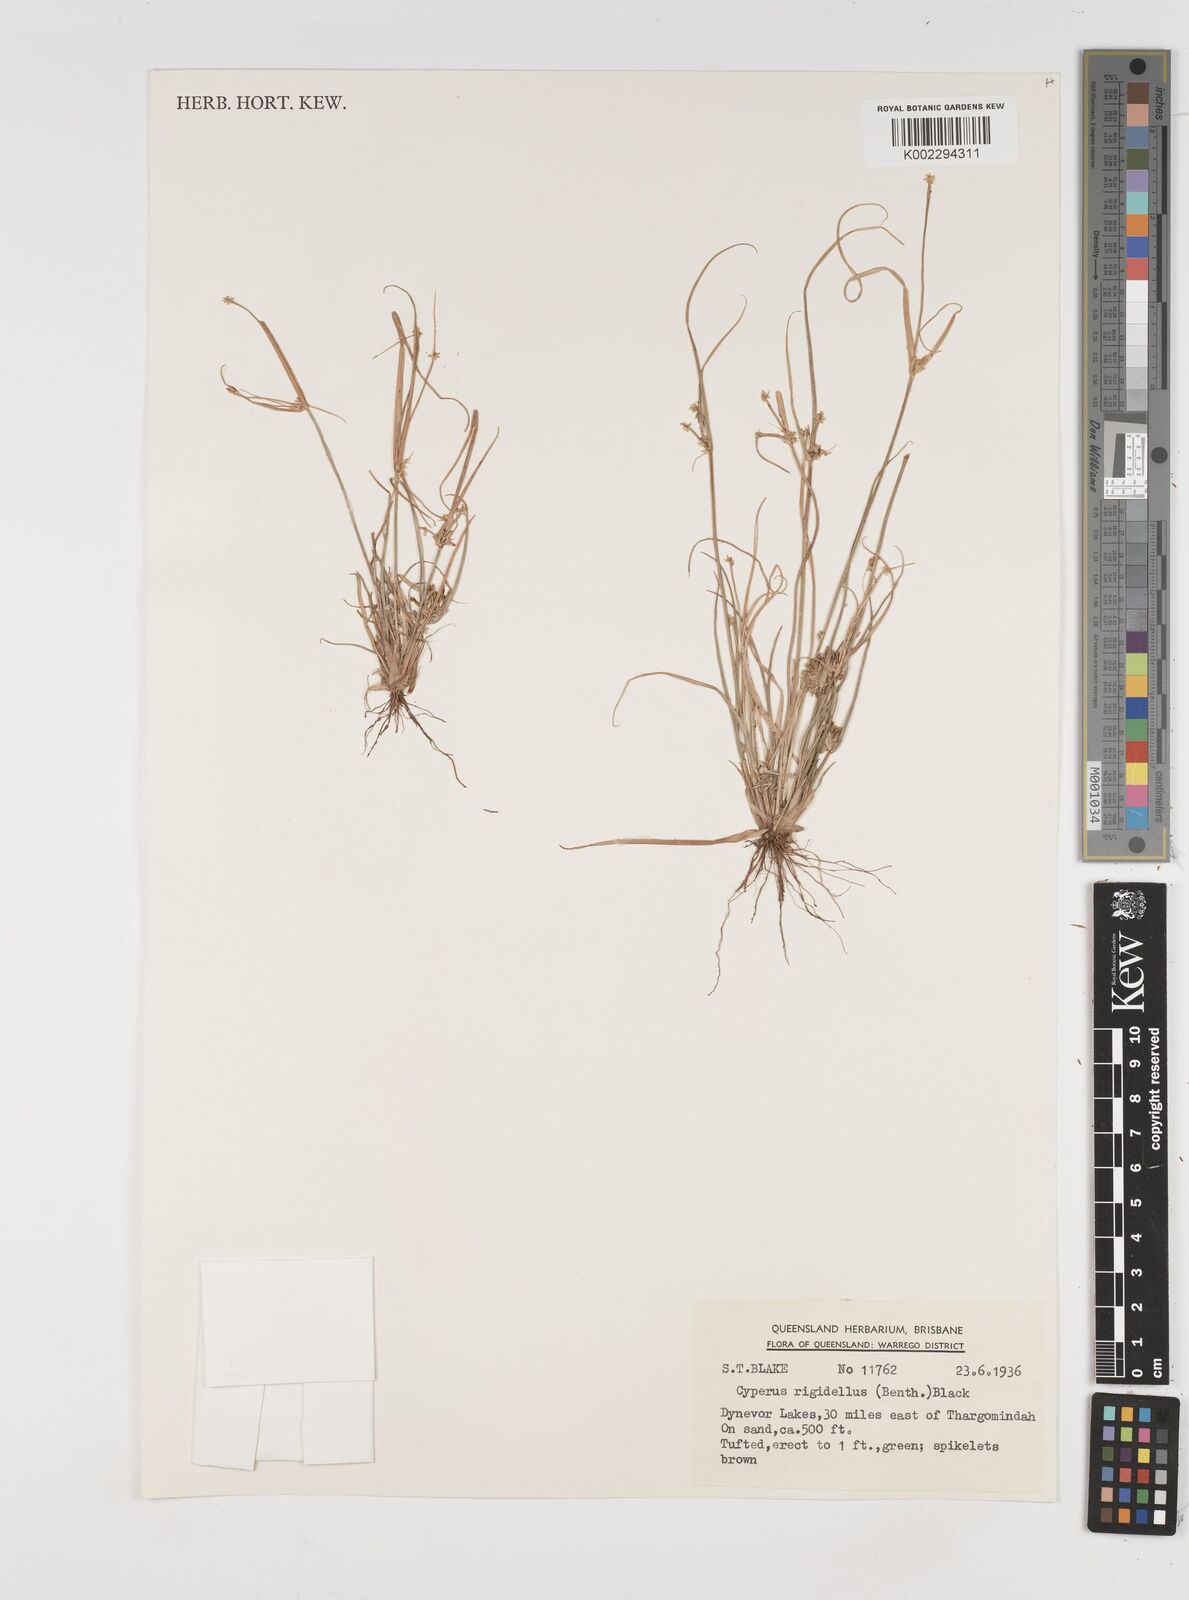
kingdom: Plantae
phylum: Tracheophyta
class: Liliopsida
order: Poales
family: Cyperaceae
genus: Cyperus
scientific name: Cyperus rigidellus
